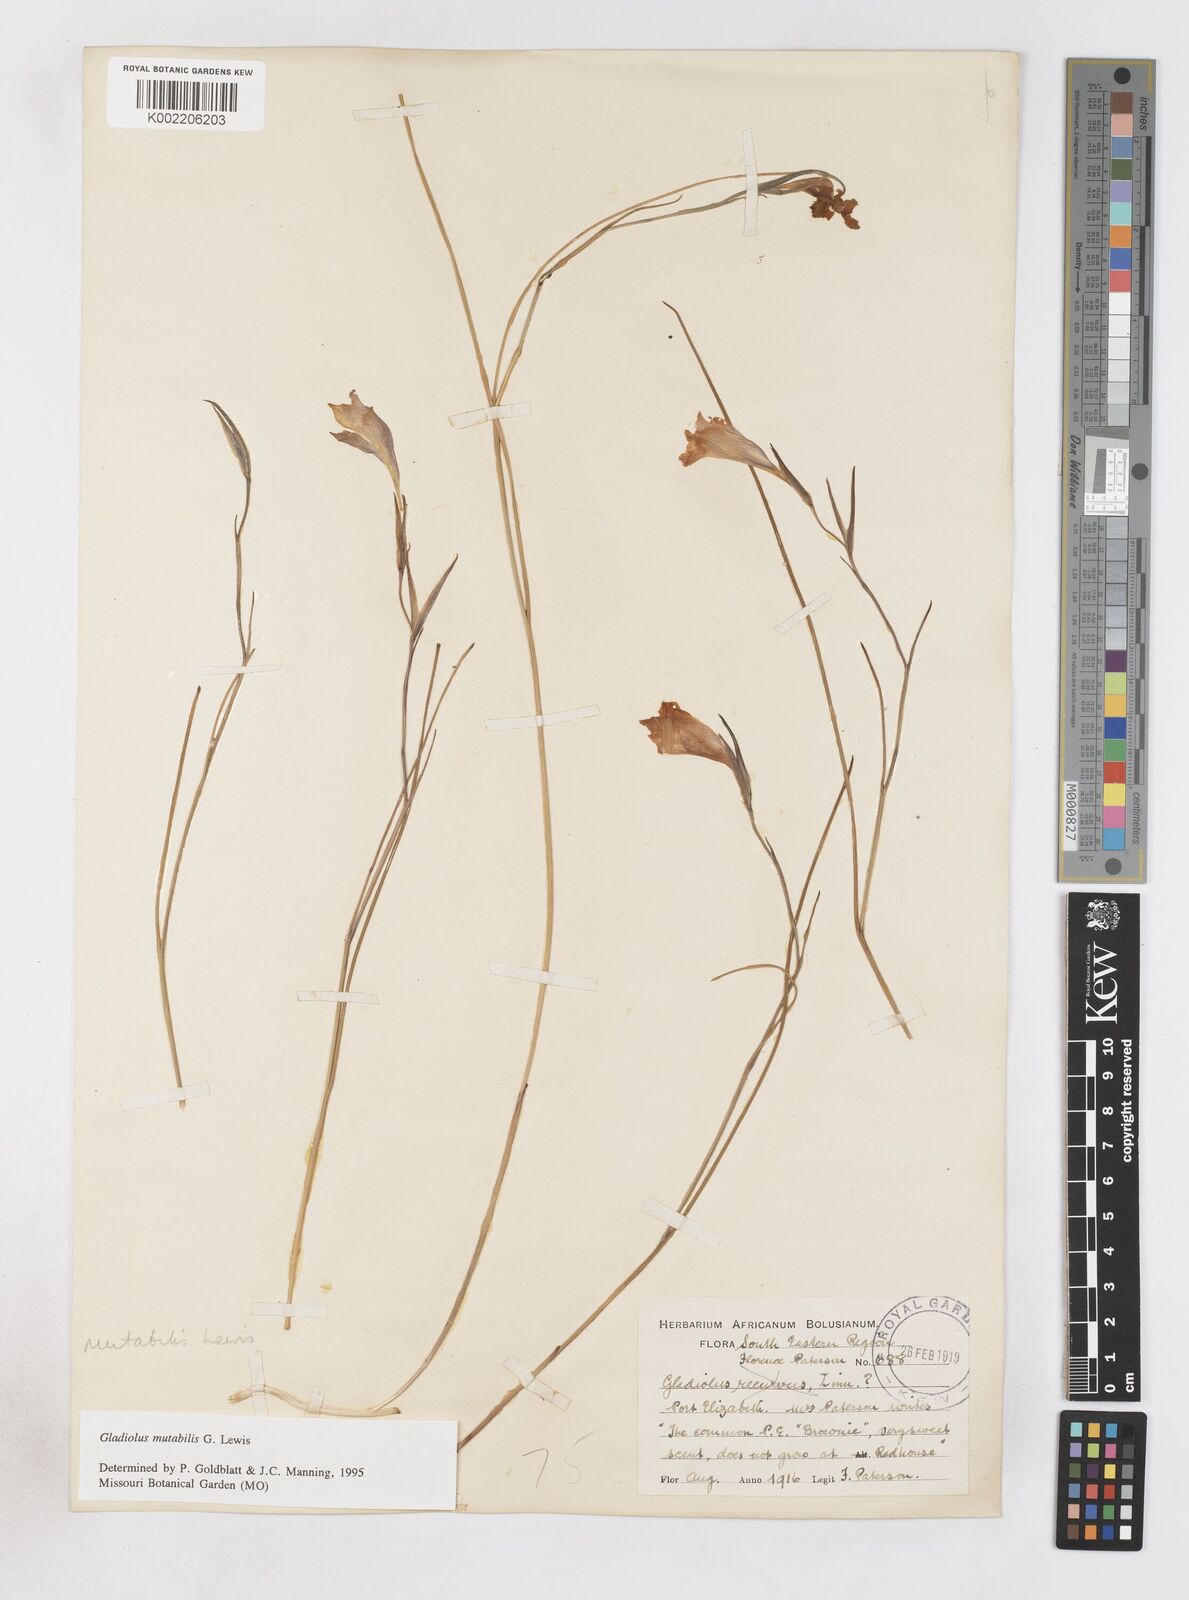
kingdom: Plantae
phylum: Tracheophyta
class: Liliopsida
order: Asparagales
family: Iridaceae
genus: Gladiolus
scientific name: Gladiolus mutabilis
